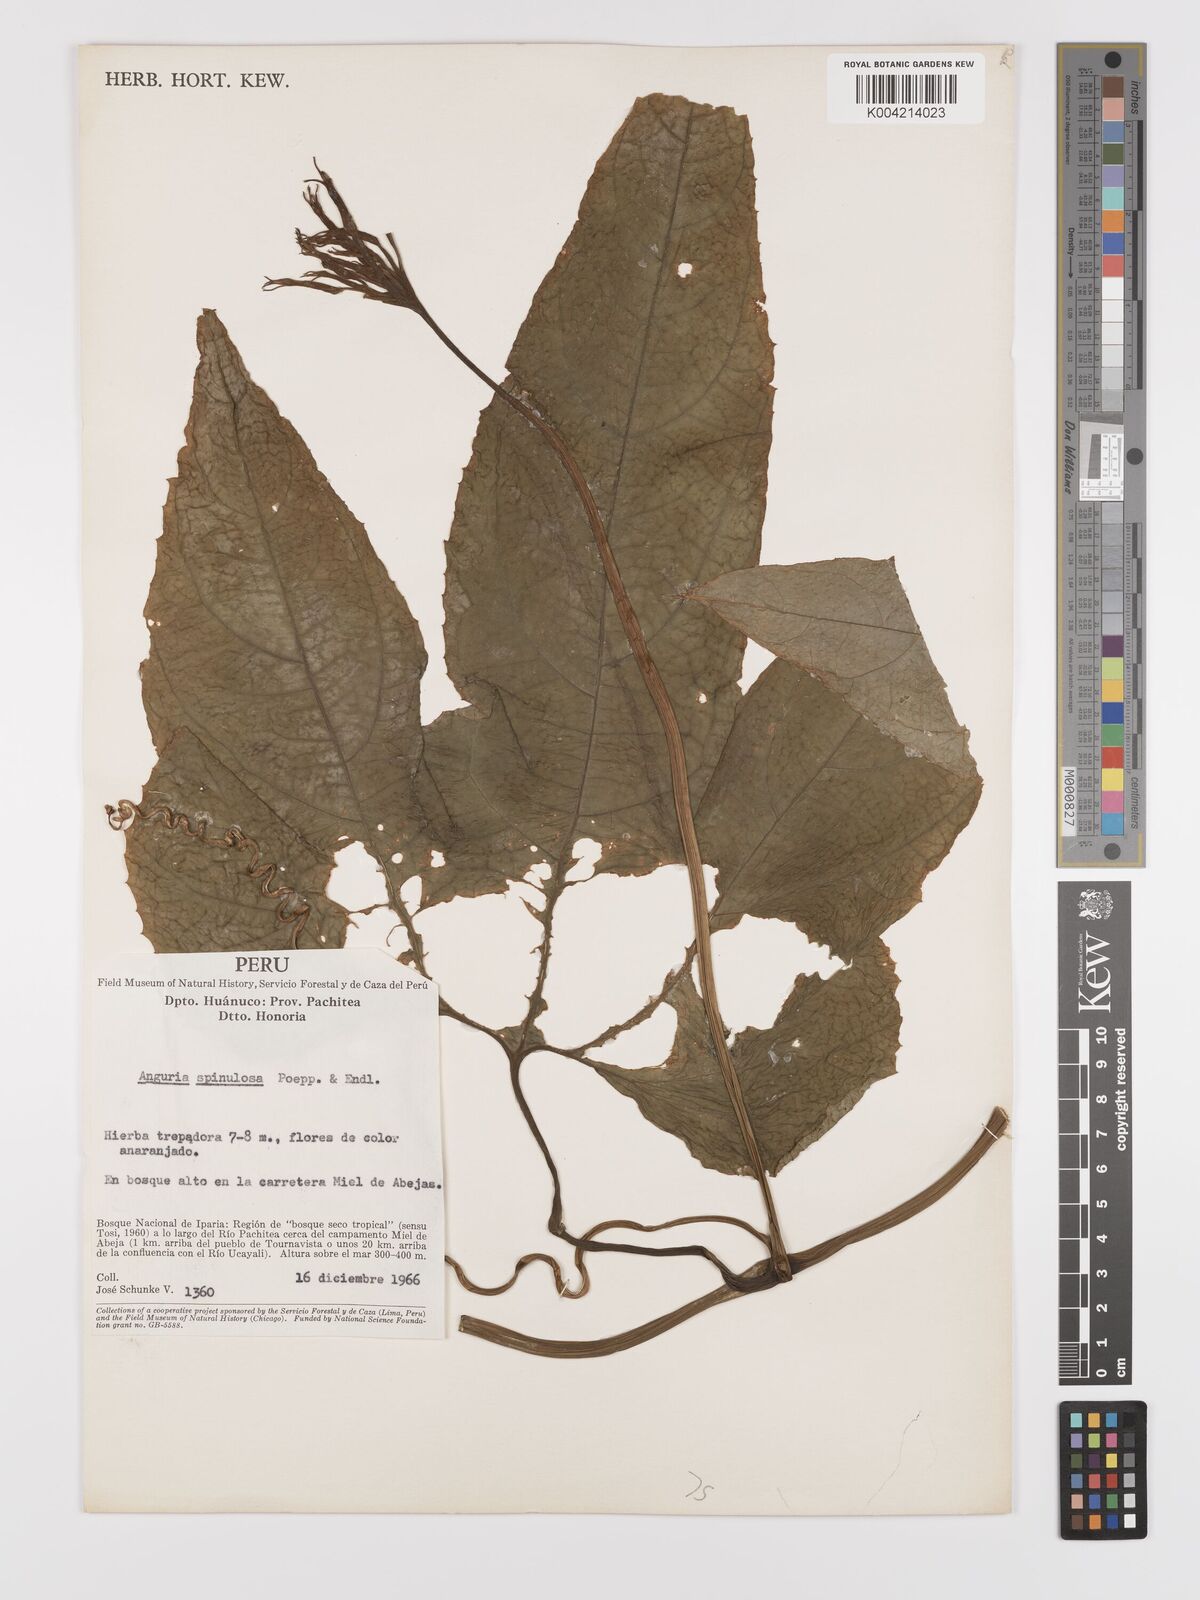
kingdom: Plantae
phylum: Tracheophyta
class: Magnoliopsida
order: Cucurbitales
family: Cucurbitaceae
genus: Gurania
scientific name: Gurania lobata
